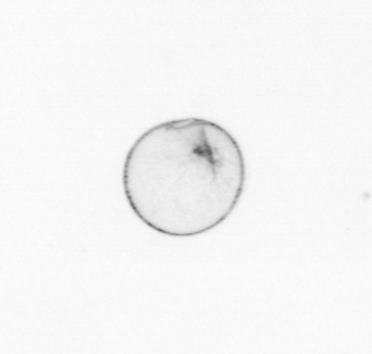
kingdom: Chromista
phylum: Myzozoa
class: Dinophyceae
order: Noctilucales
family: Noctilucaceae
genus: Noctiluca
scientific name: Noctiluca scintillans
